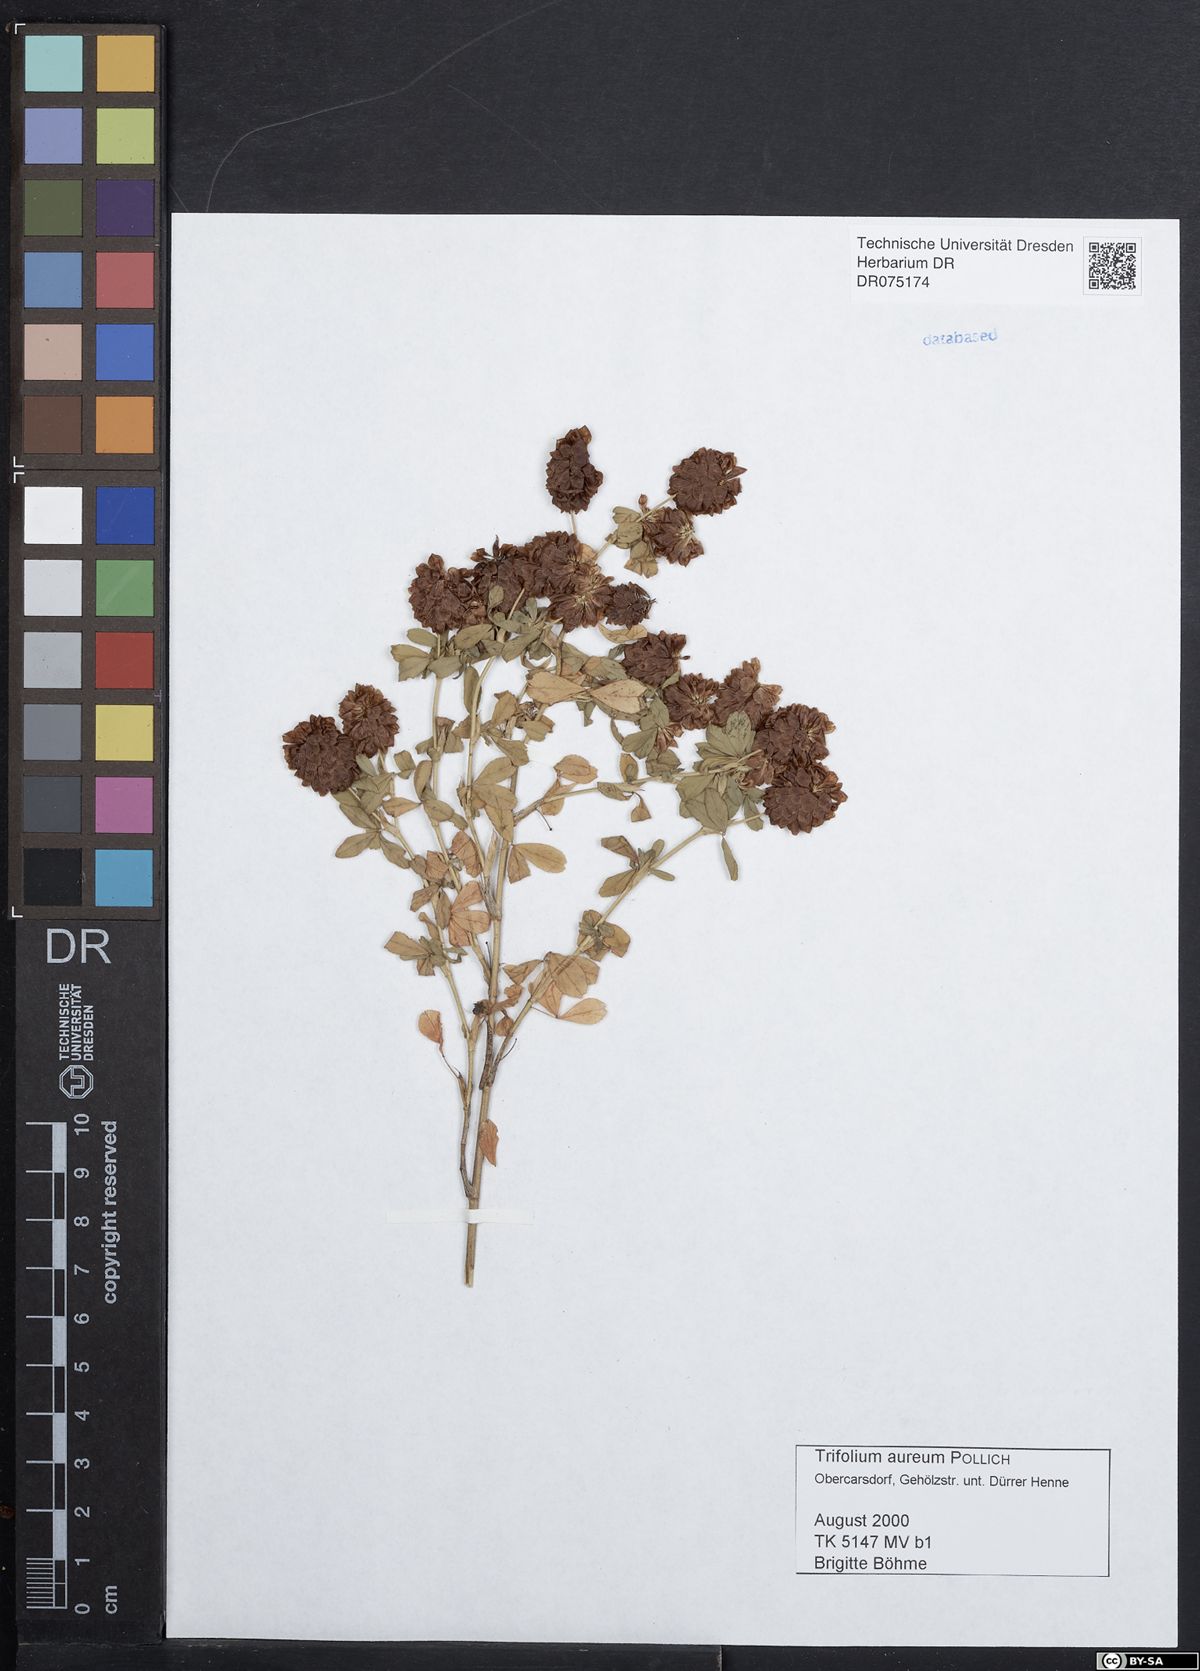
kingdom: Plantae
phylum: Tracheophyta
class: Magnoliopsida
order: Fabales
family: Fabaceae
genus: Trifolium
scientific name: Trifolium aureum
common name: Golden clover
